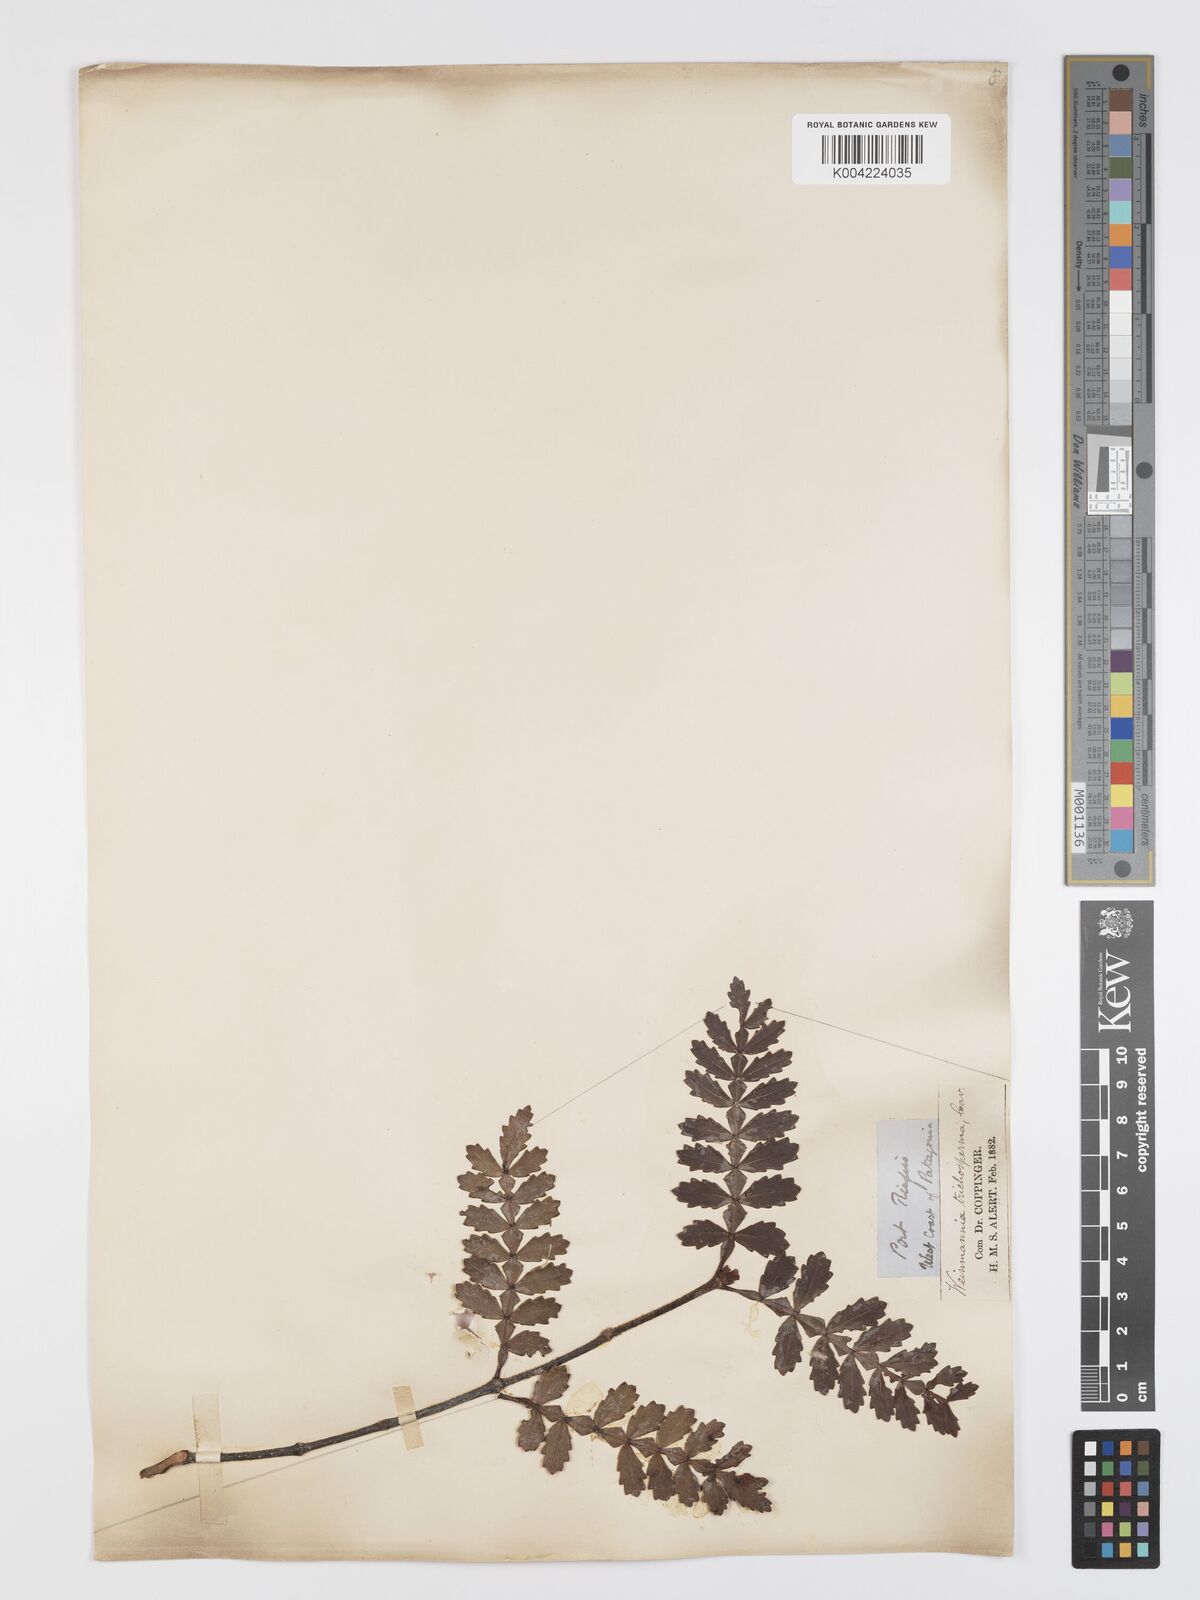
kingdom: Plantae
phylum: Tracheophyta
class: Magnoliopsida
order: Oxalidales
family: Cunoniaceae
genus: Weinmannia
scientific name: Weinmannia trichosperma
